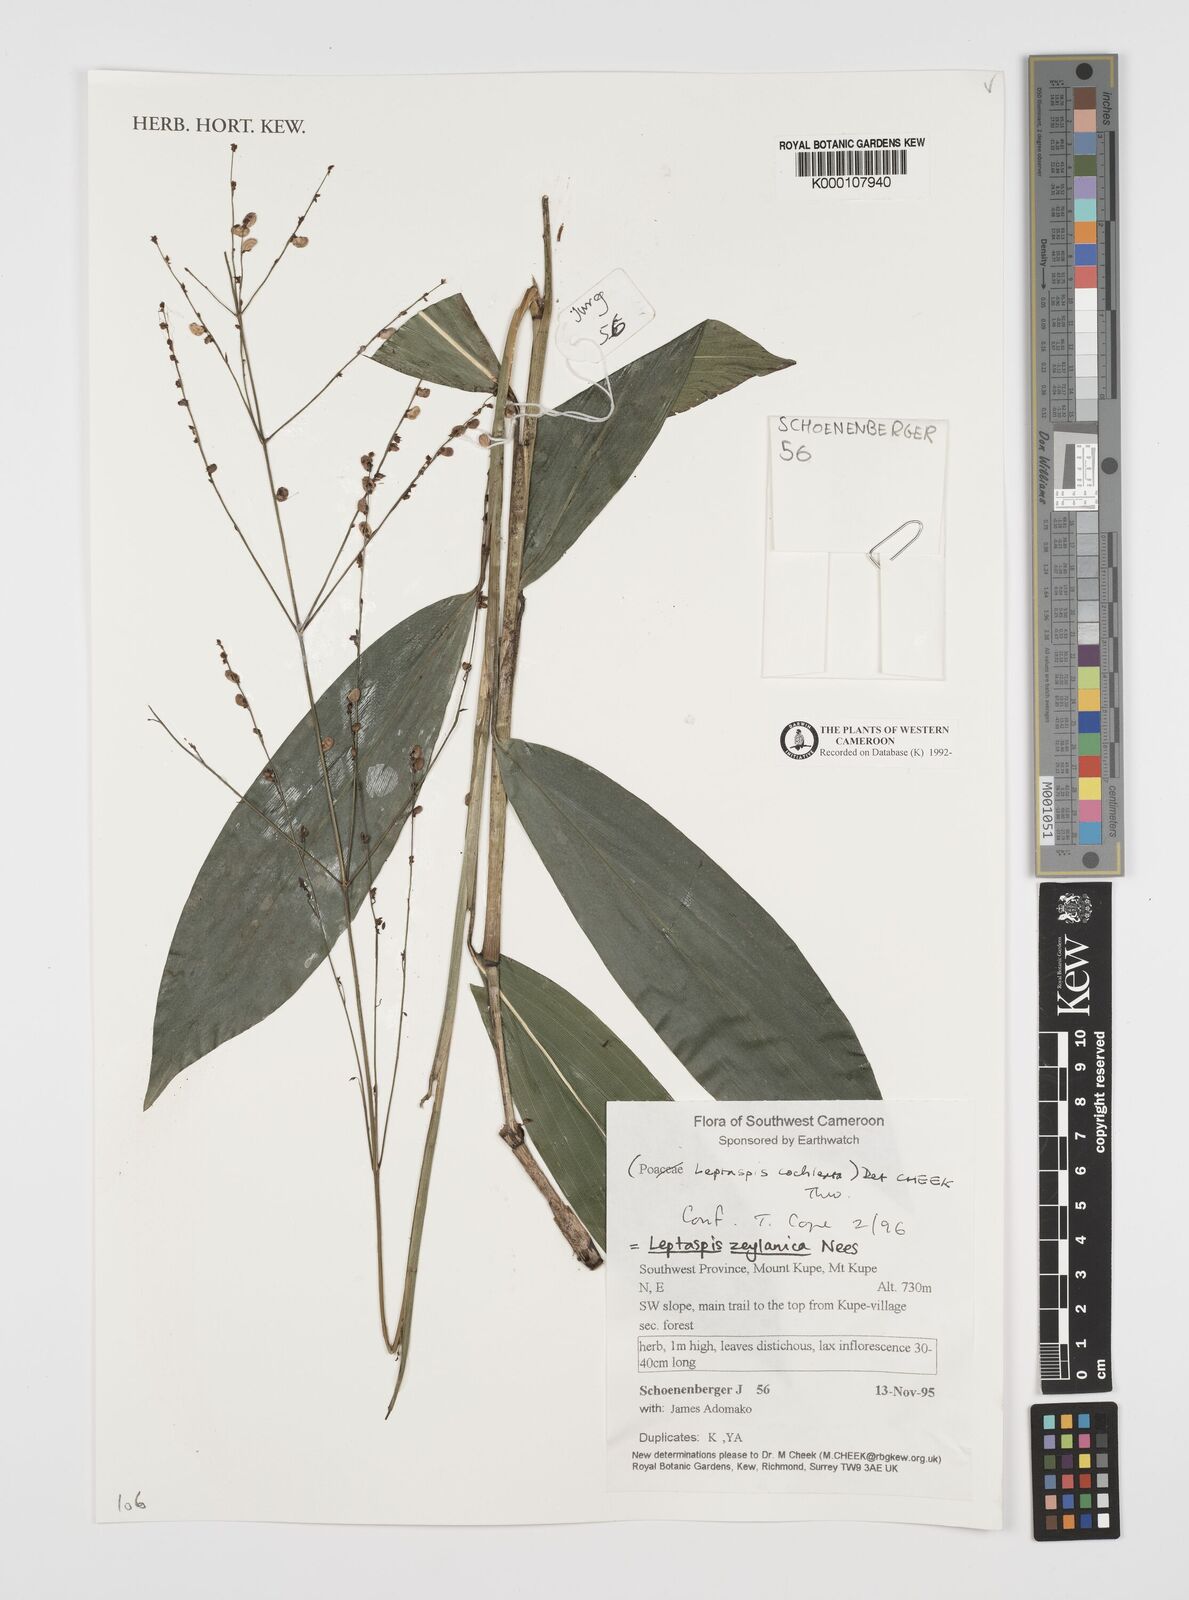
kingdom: Plantae
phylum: Tracheophyta
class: Liliopsida
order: Poales
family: Poaceae
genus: Leptaspis
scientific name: Leptaspis zeylanica
